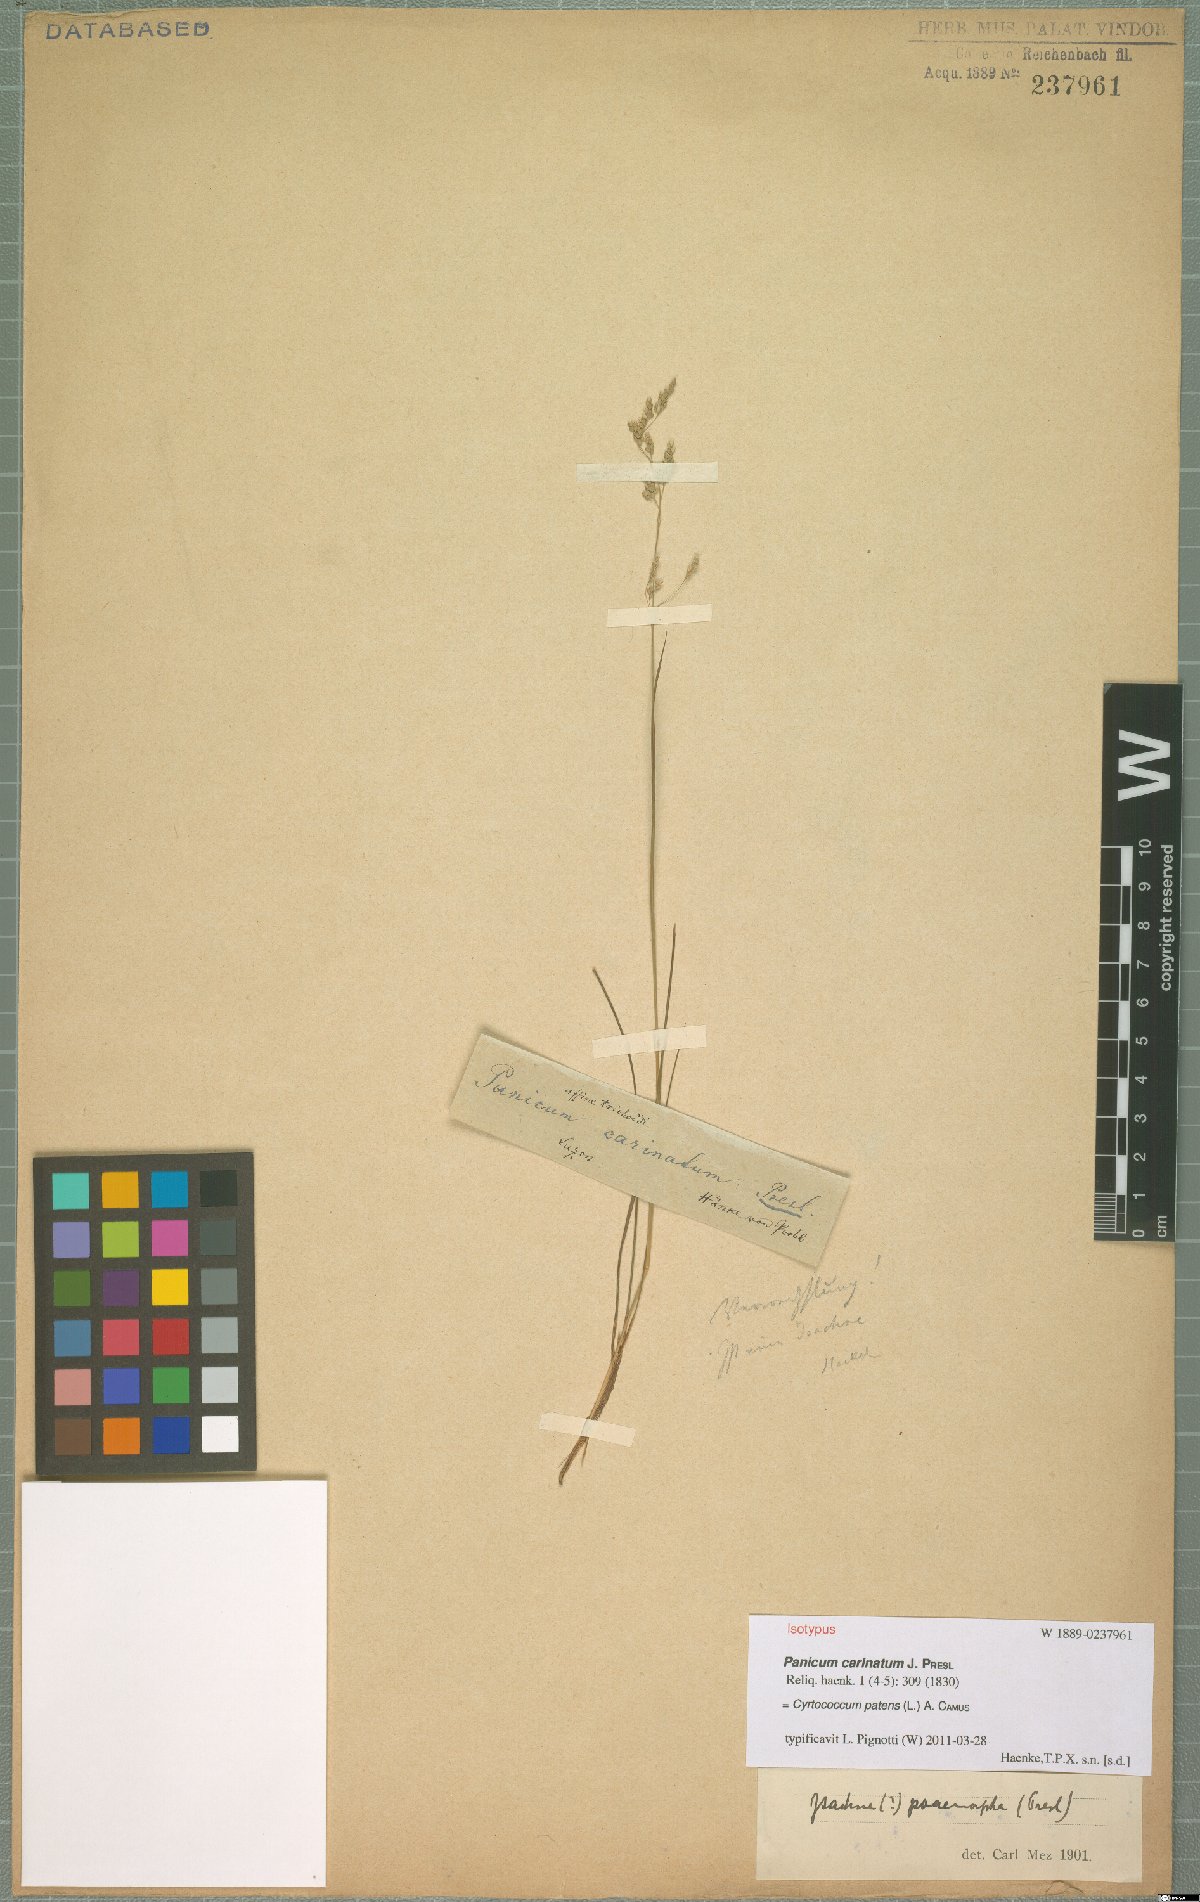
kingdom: Plantae
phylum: Tracheophyta
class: Liliopsida
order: Poales
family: Poaceae
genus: Cyrtococcum
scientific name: Cyrtococcum patens
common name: Broad-leaved bowgrass
